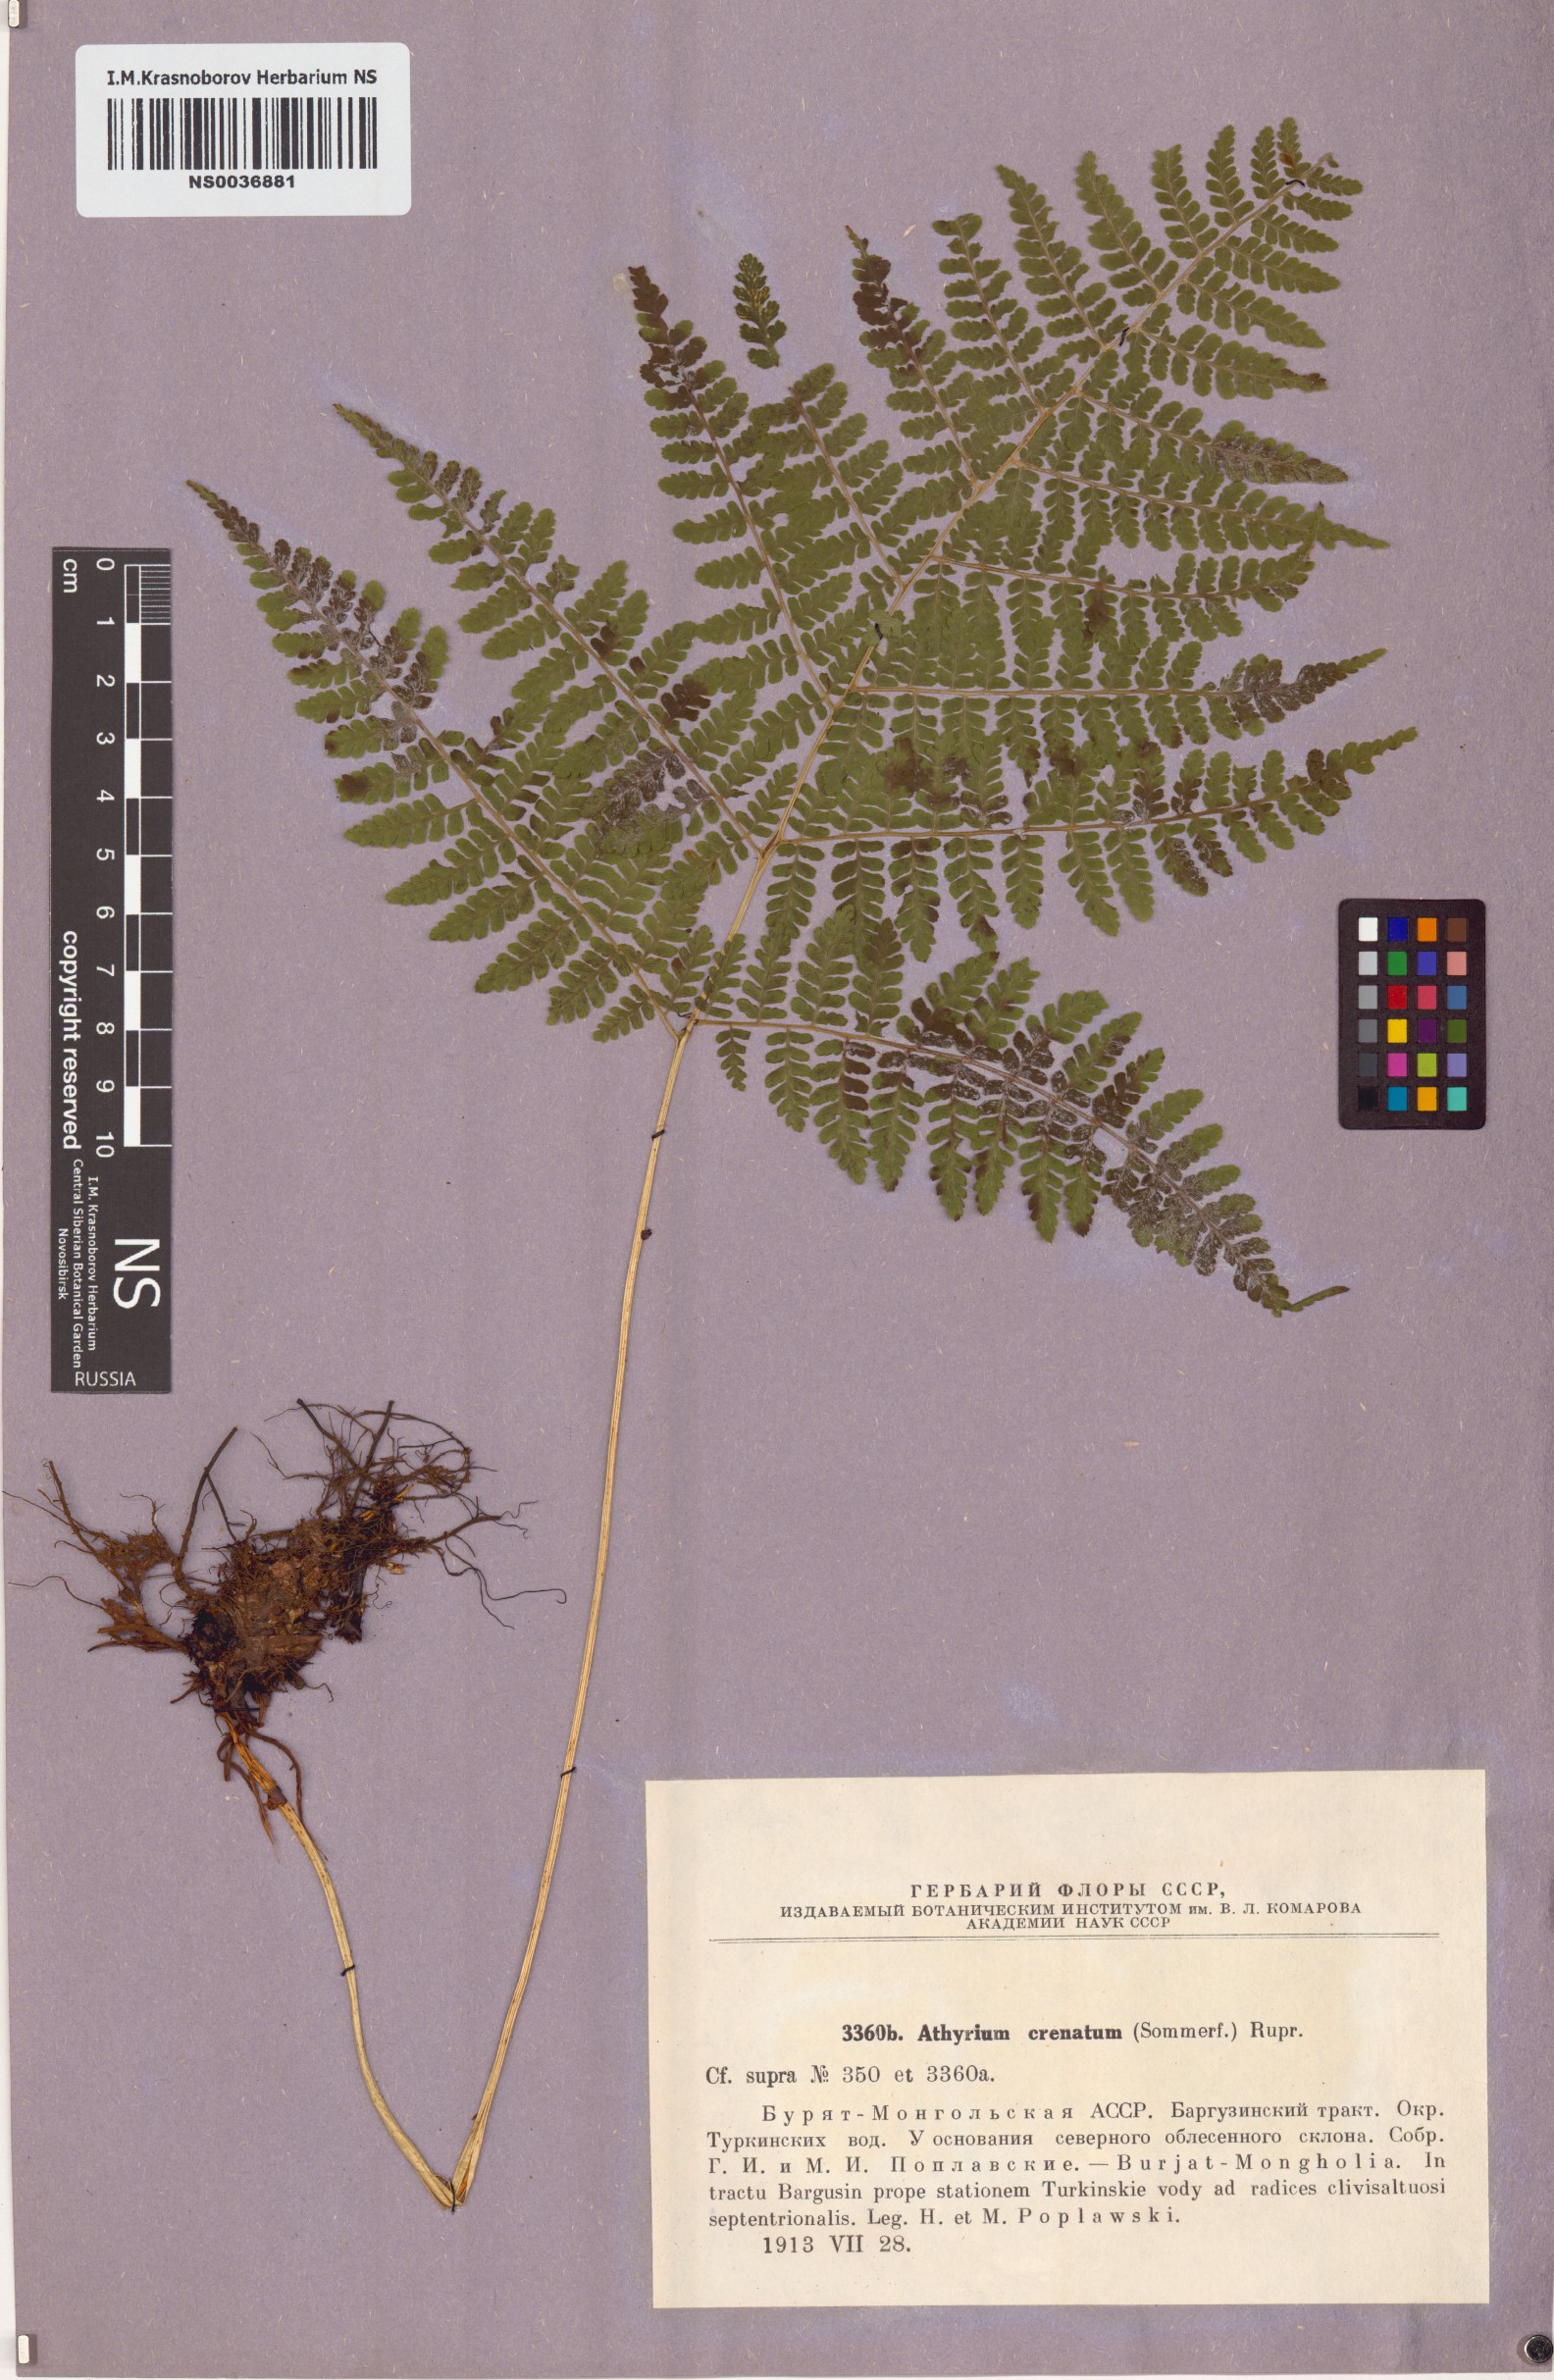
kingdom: Plantae
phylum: Tracheophyta
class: Polypodiopsida
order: Polypodiales
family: Athyriaceae
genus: Diplazium
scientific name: Diplazium sibiricum
